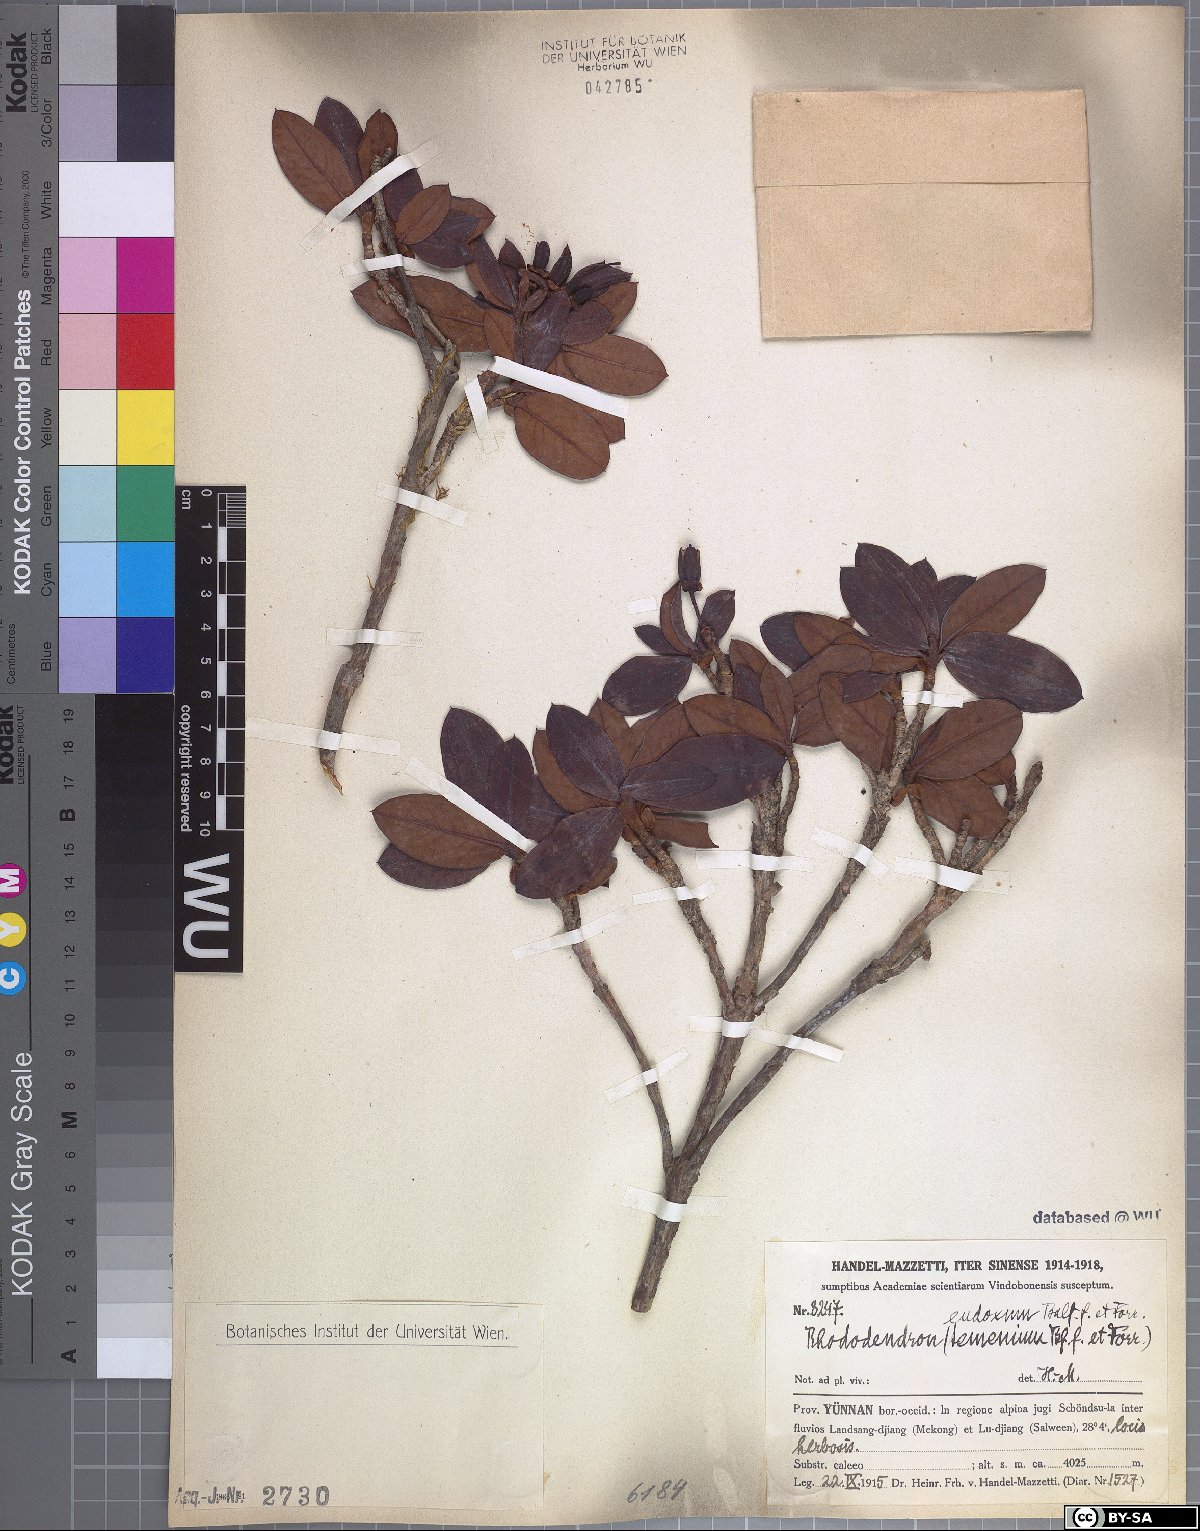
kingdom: Plantae
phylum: Tracheophyta
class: Magnoliopsida
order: Ericales
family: Ericaceae
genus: Rhododendron
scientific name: Rhododendron eudoxum
